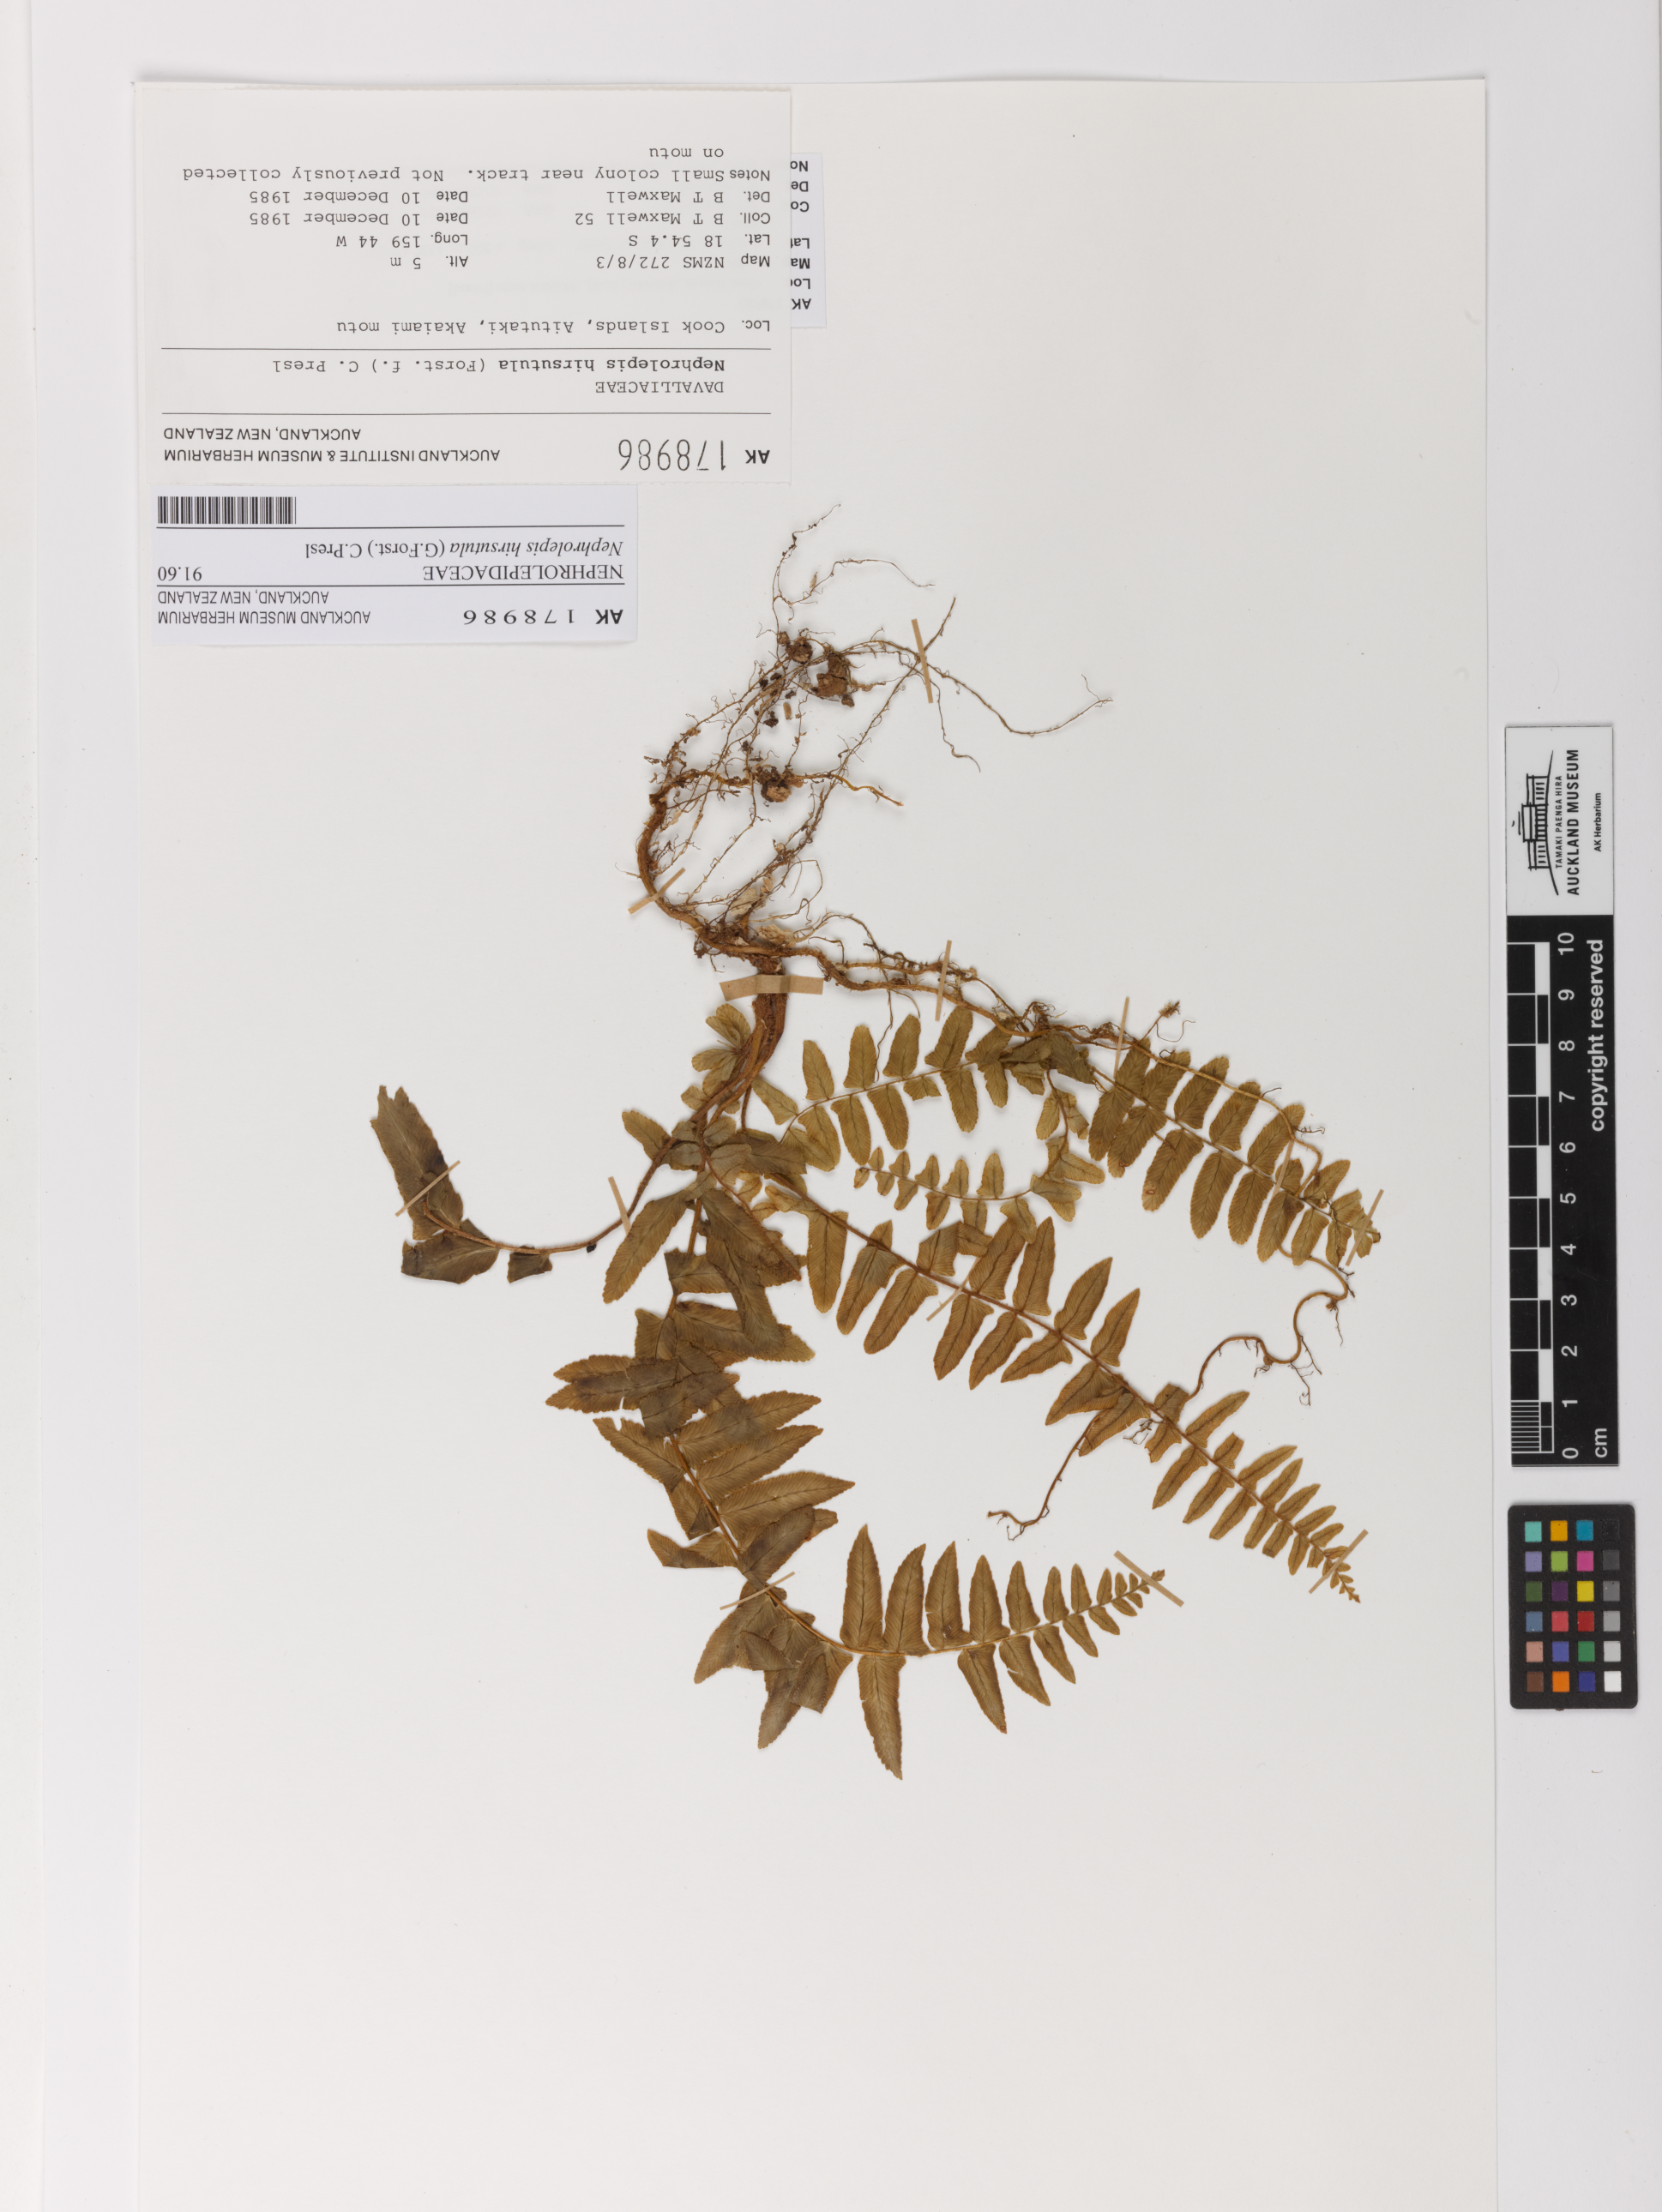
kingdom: Plantae
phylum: Tracheophyta
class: Polypodiopsida
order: Polypodiales
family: Nephrolepidaceae
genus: Nephrolepis
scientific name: Nephrolepis hirsutula
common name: Asian sword fern
